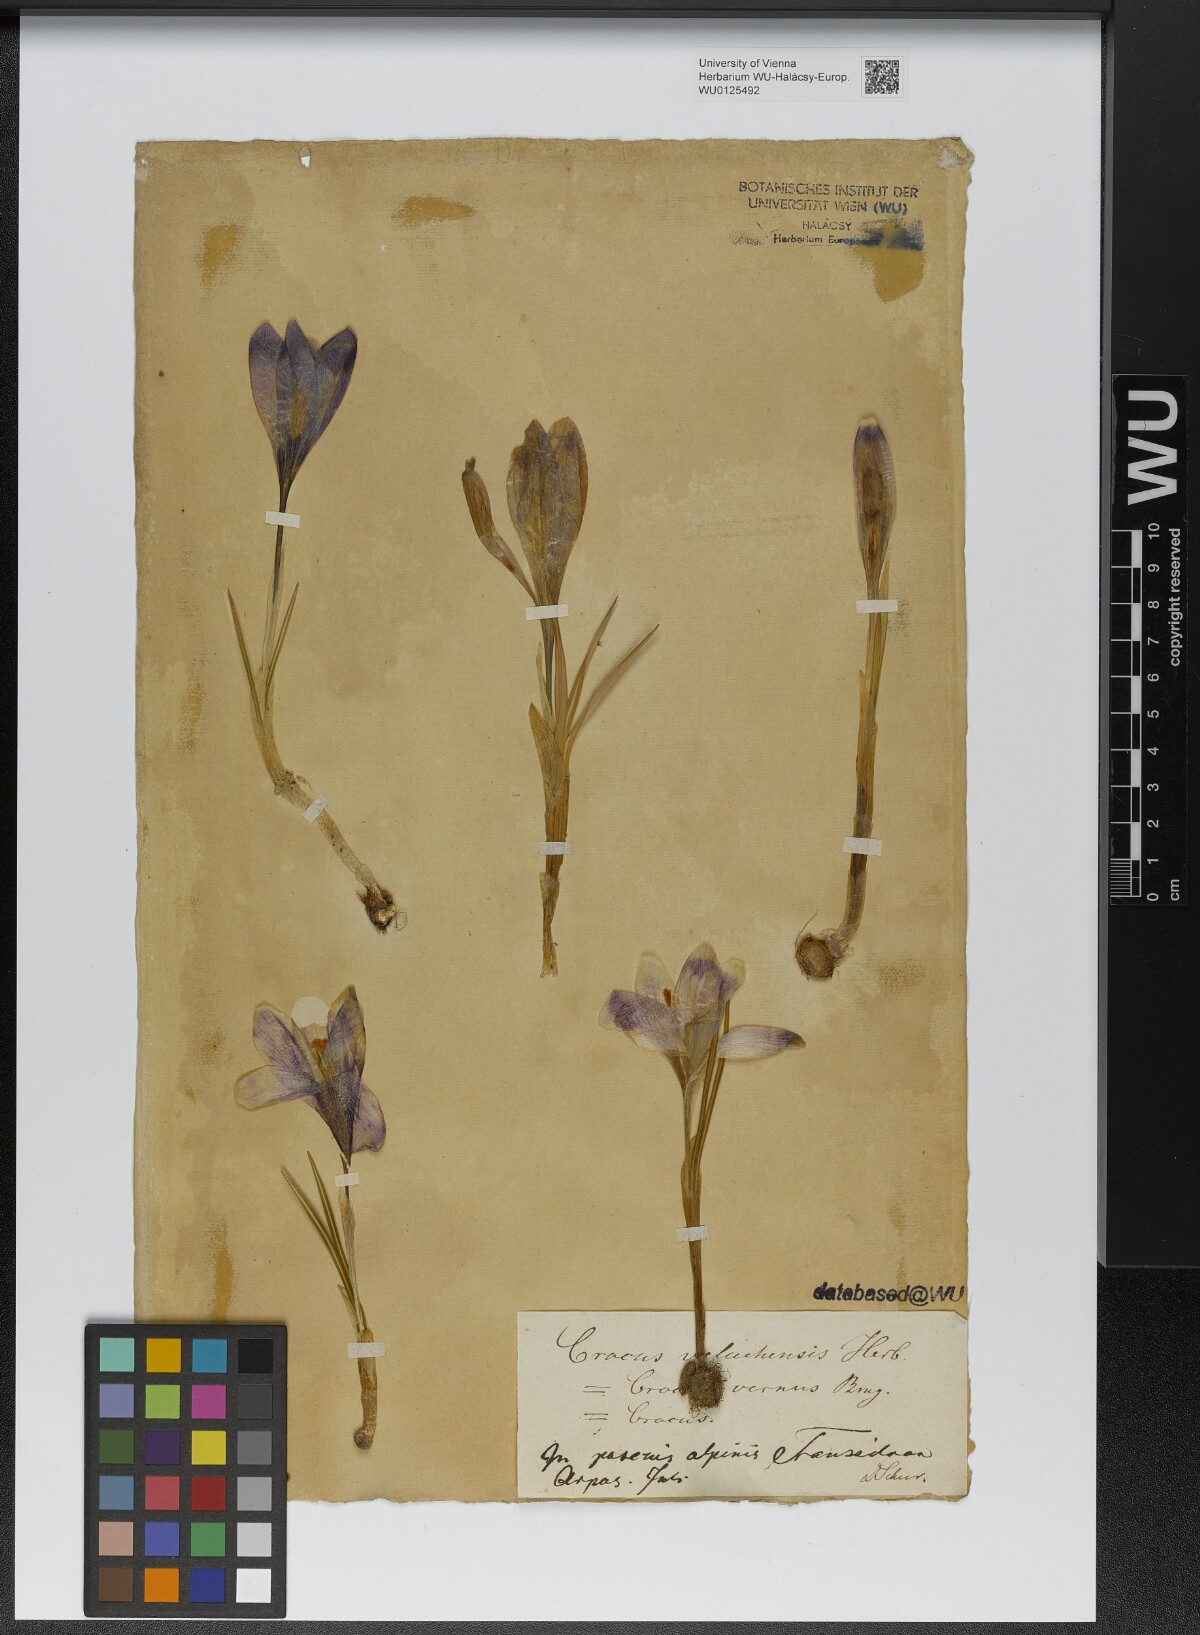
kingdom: Plantae
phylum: Tracheophyta
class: Liliopsida
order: Asparagales
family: Iridaceae
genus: Crocus
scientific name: Crocus veluchensis
